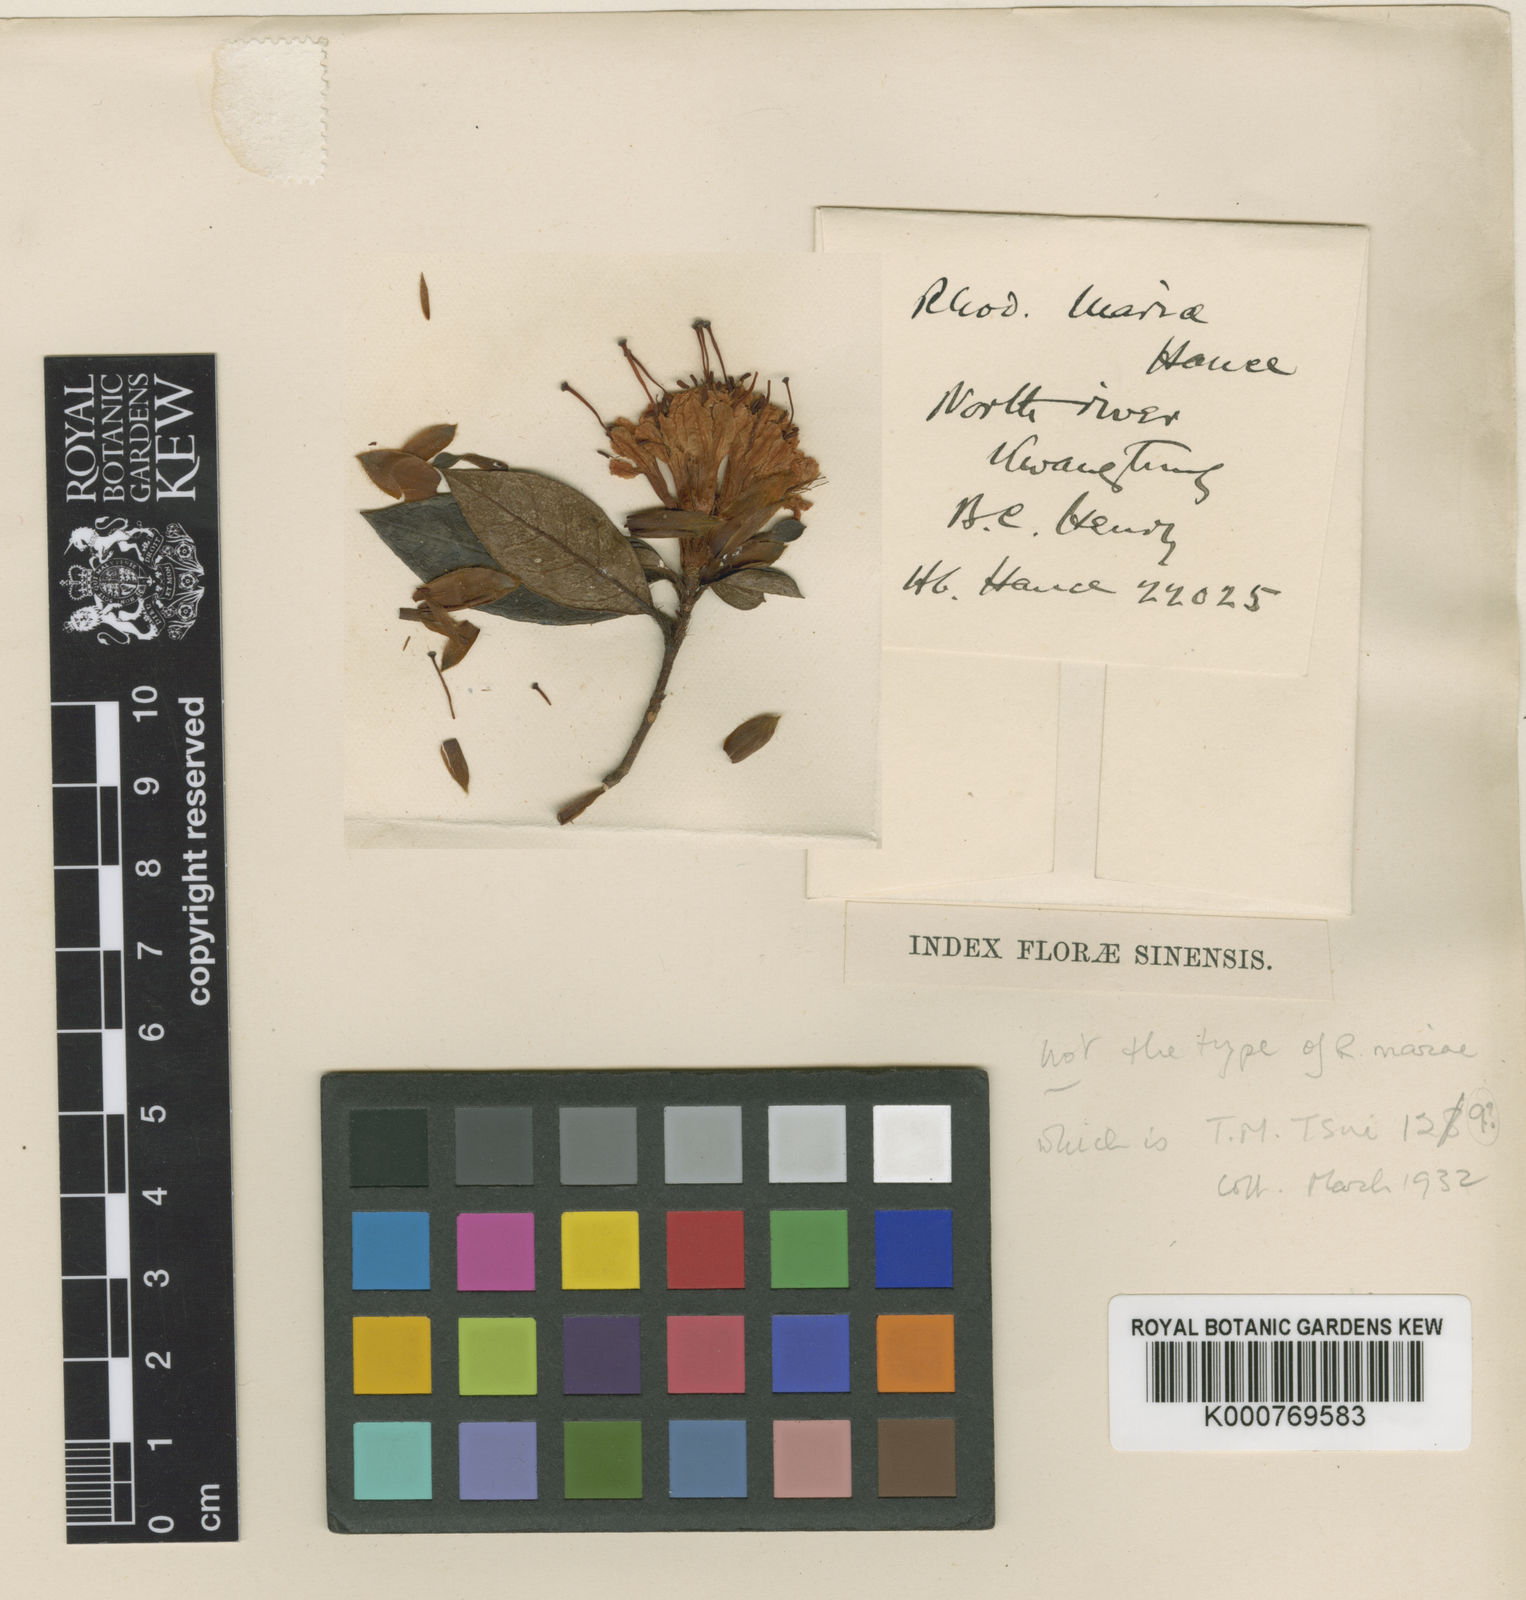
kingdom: Plantae
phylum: Tracheophyta
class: Magnoliopsida
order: Ericales
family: Ericaceae
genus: Rhododendron
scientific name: Rhododendron mariae
